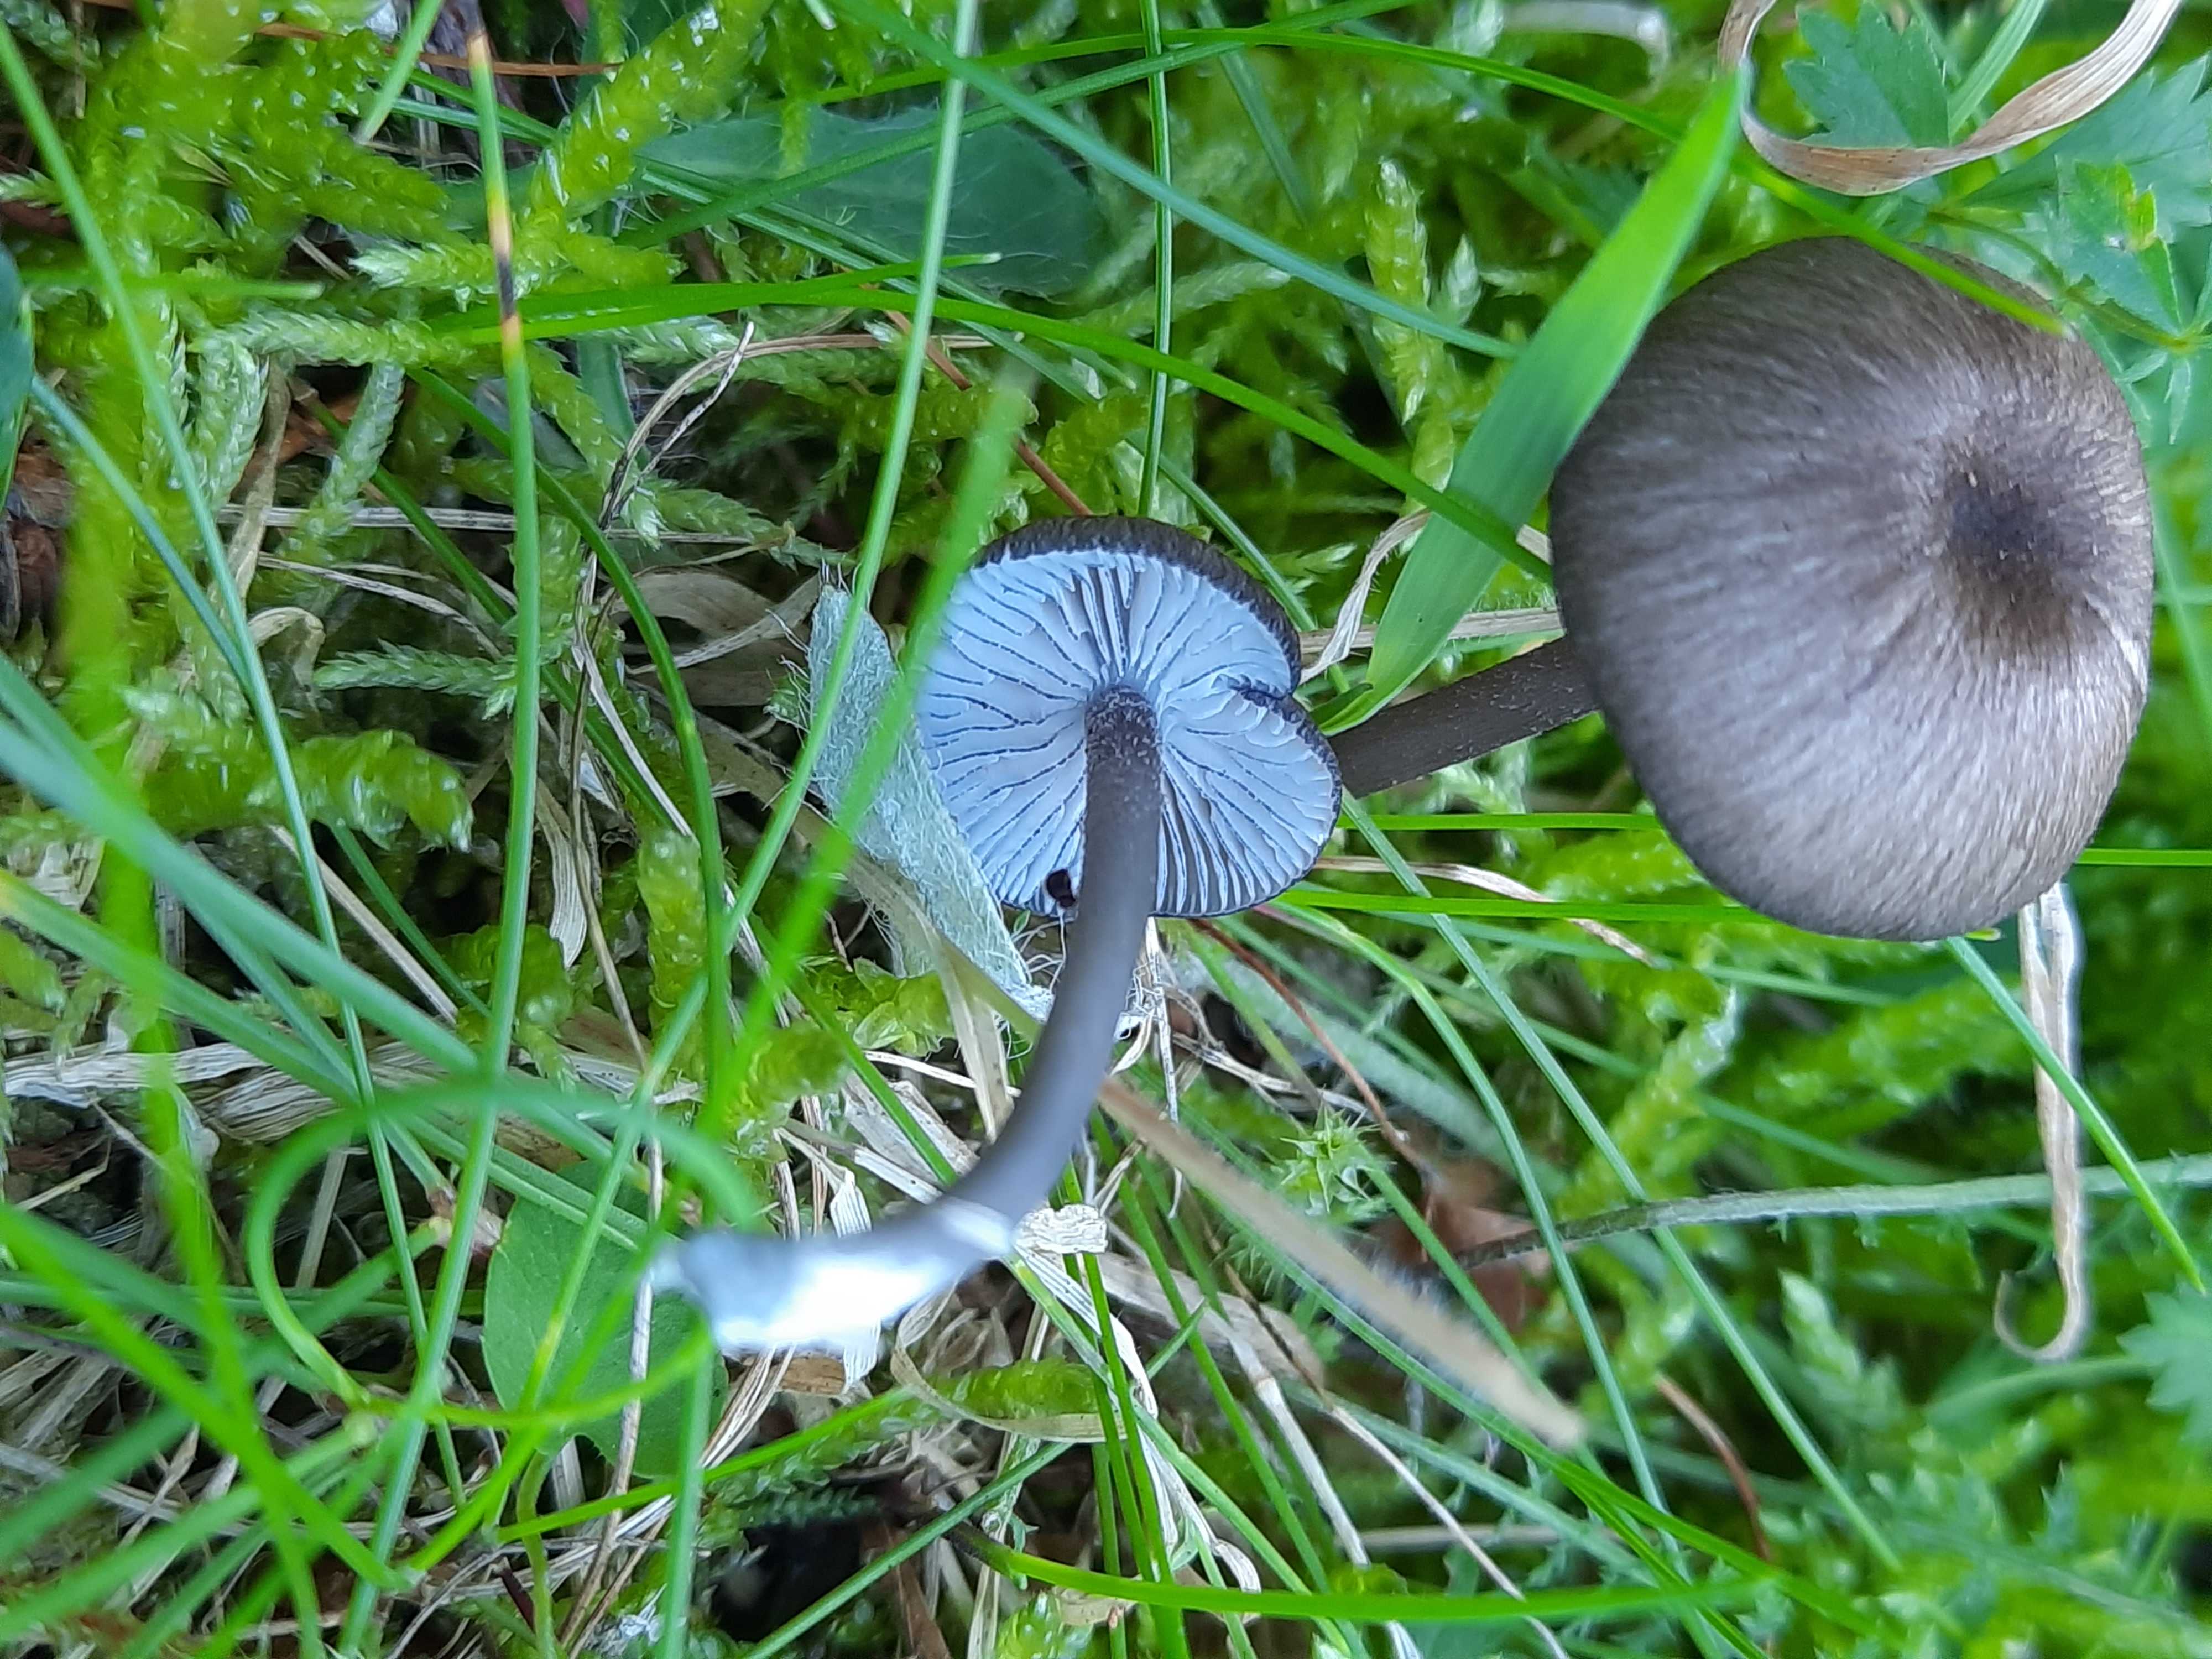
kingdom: Fungi
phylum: Basidiomycota
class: Agaricomycetes
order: Agaricales
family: Entolomataceae
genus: Entoloma
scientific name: Entoloma
